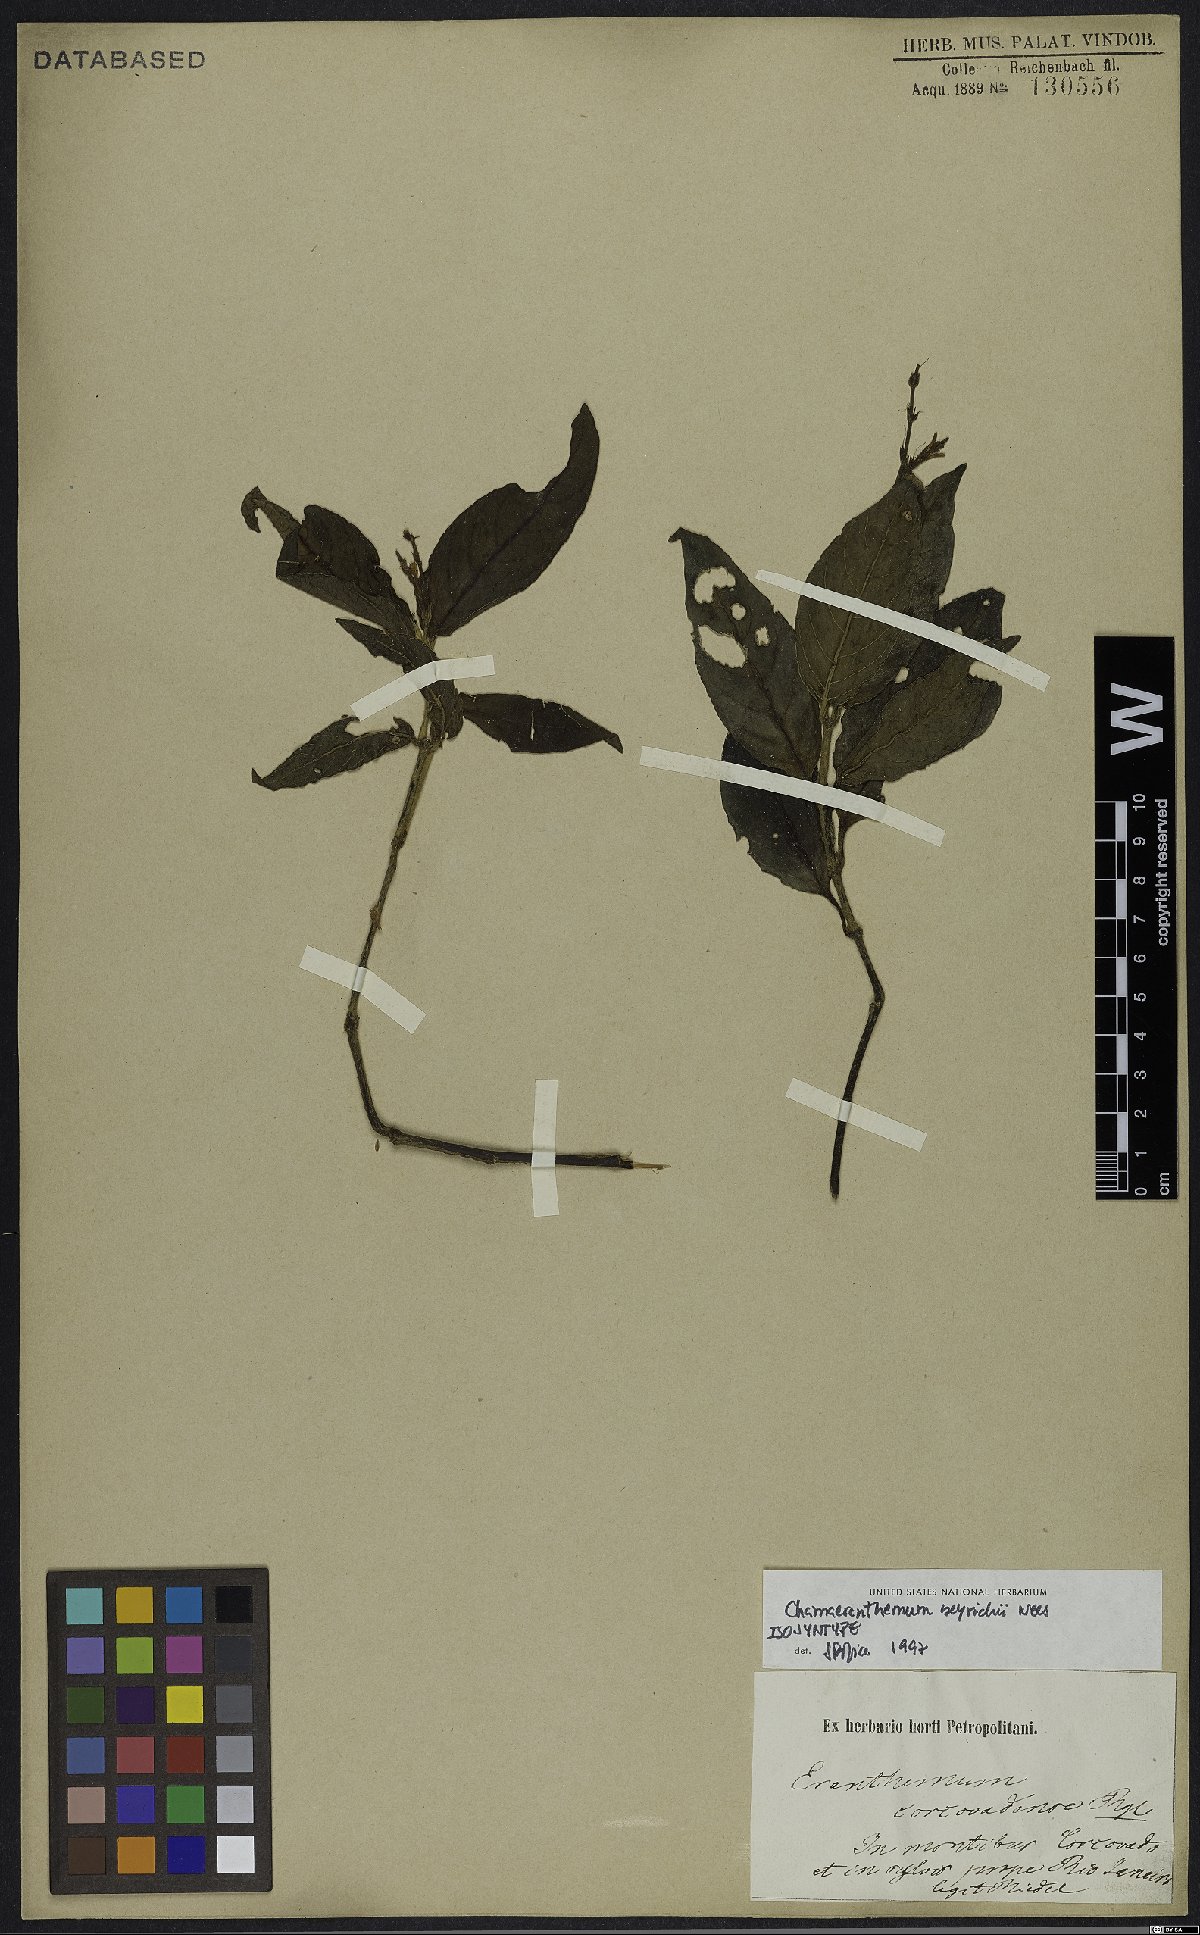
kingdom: Plantae
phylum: Tracheophyta
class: Magnoliopsida
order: Lamiales
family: Acanthaceae
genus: Chamaeranthemum
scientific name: Chamaeranthemum beyrichii
